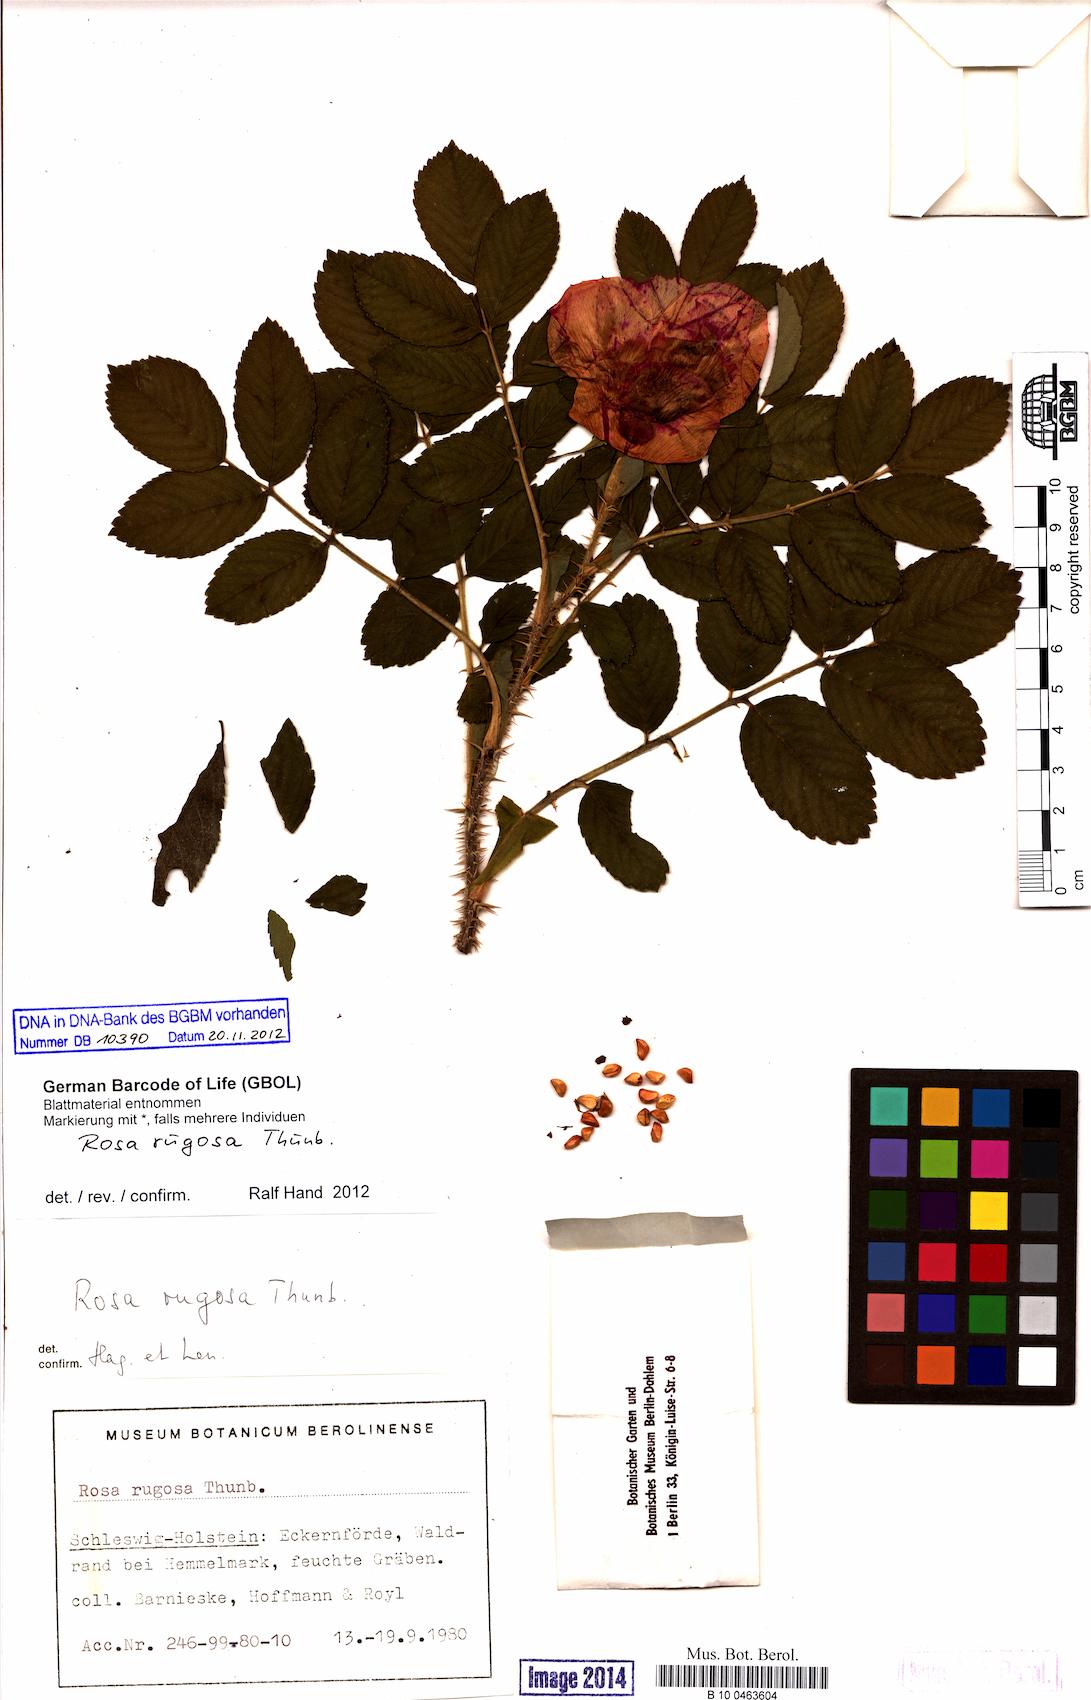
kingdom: Plantae
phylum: Tracheophyta
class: Magnoliopsida
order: Rosales
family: Rosaceae
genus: Rosa
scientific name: Rosa rugosa
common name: Japanese rose
